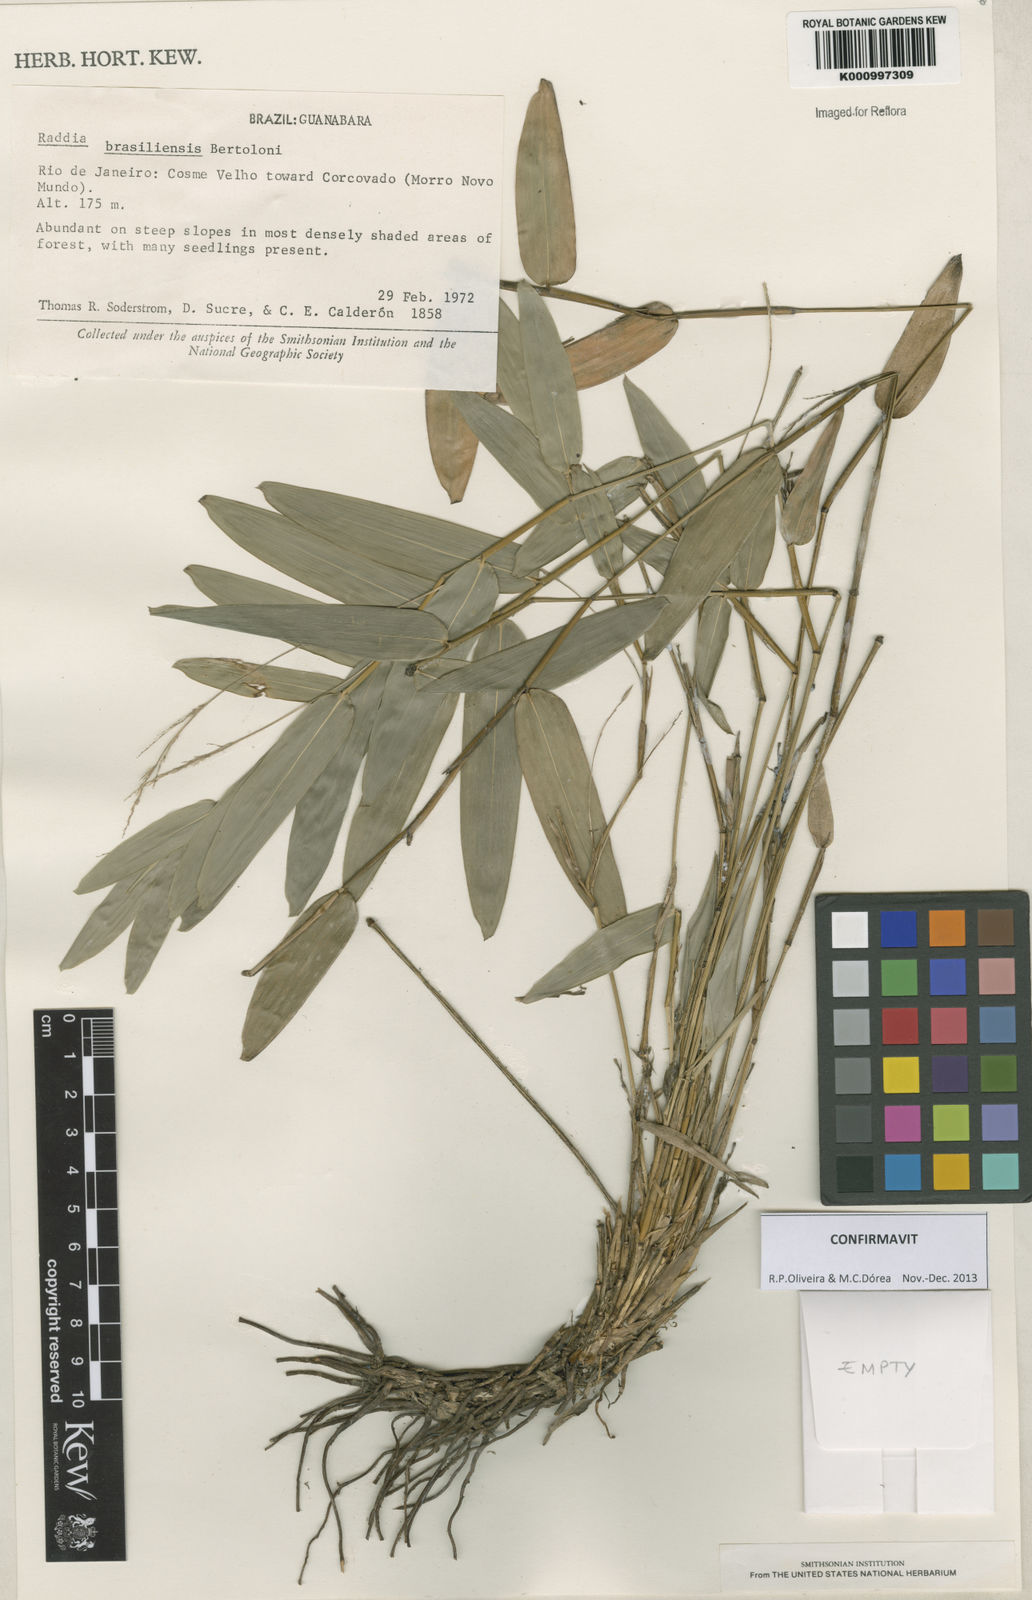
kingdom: Plantae
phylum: Tracheophyta
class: Liliopsida
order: Poales
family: Poaceae
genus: Raddia
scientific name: Raddia brasiliensis
